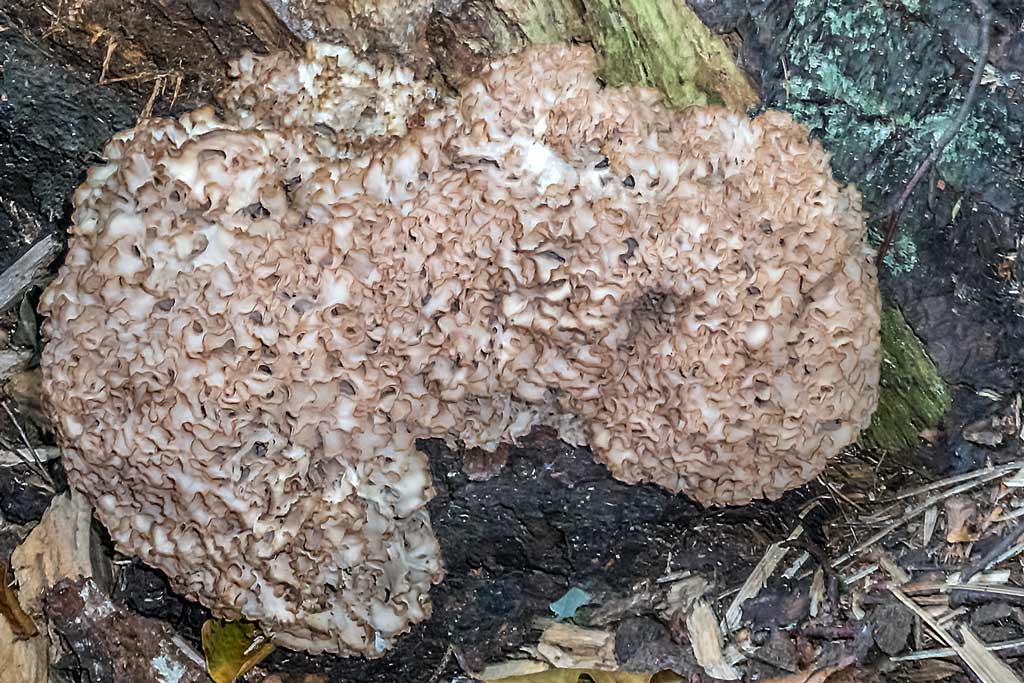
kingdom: Fungi
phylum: Basidiomycota
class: Agaricomycetes
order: Polyporales
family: Sparassidaceae
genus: Sparassis
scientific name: Sparassis crispa
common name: kruset blomkålssvamp
